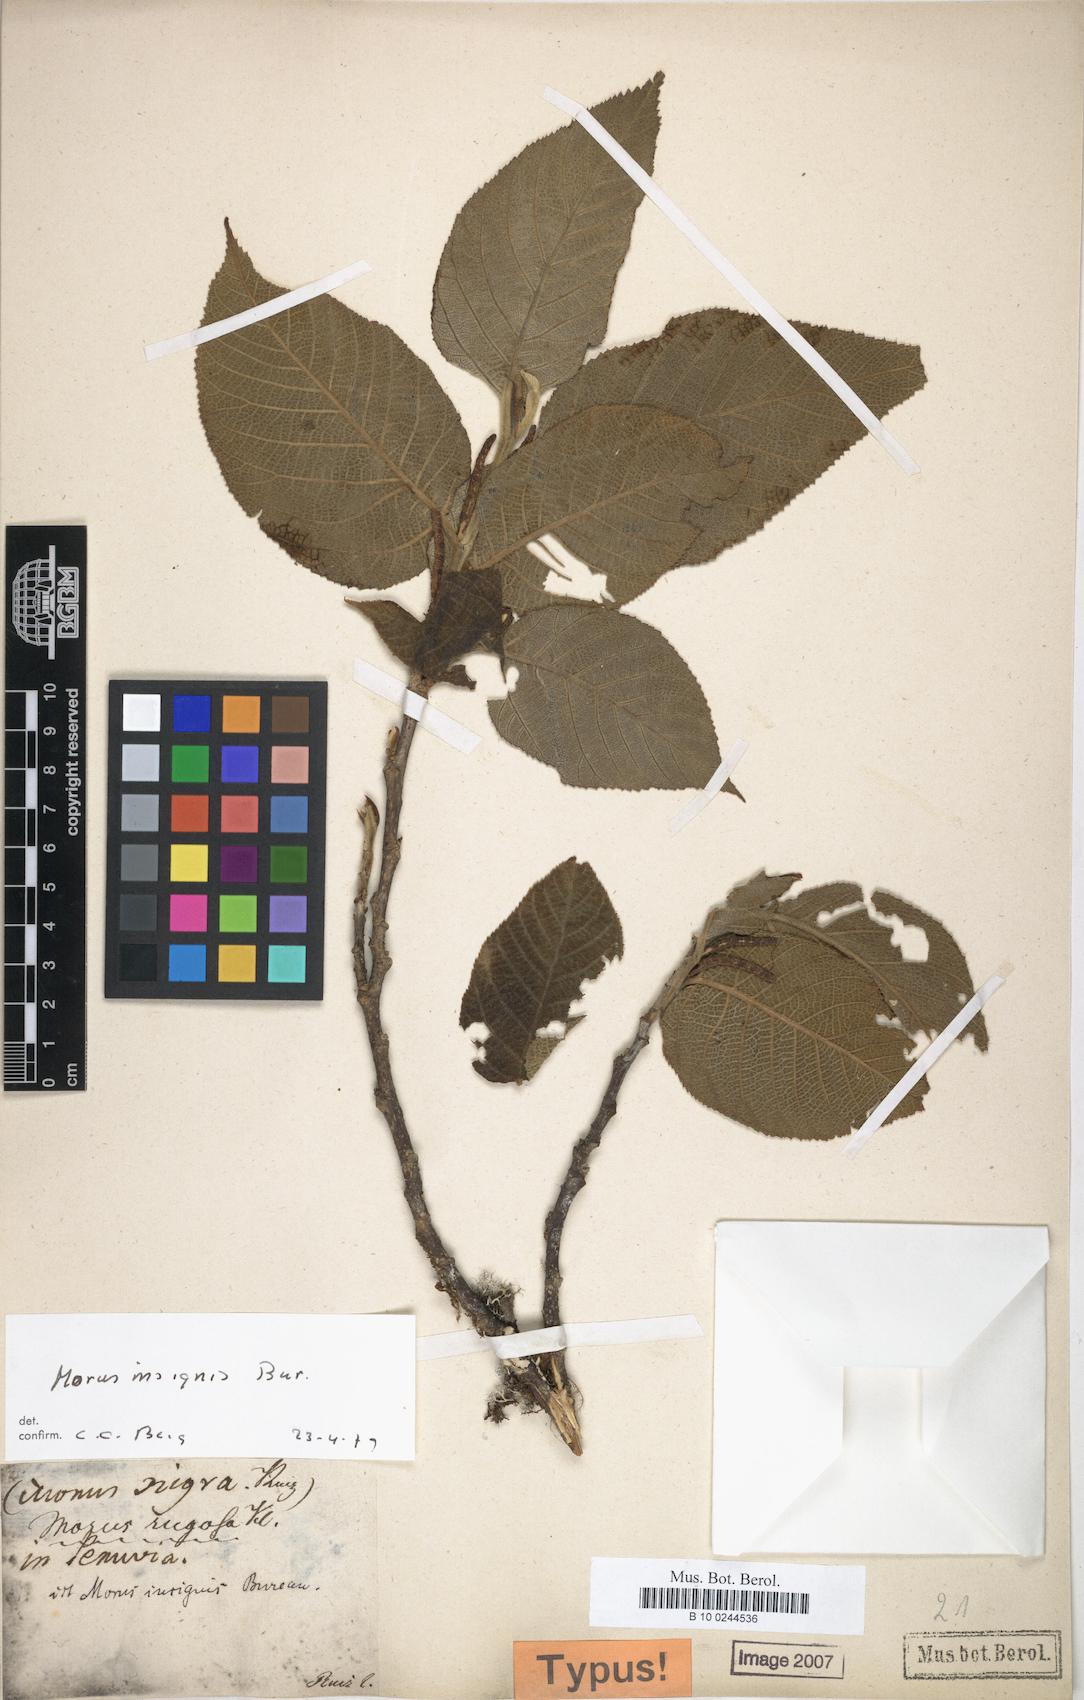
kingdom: Plantae
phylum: Tracheophyta
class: Magnoliopsida
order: Rosales
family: Moraceae
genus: Paratrophis
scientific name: Paratrophis insignis
